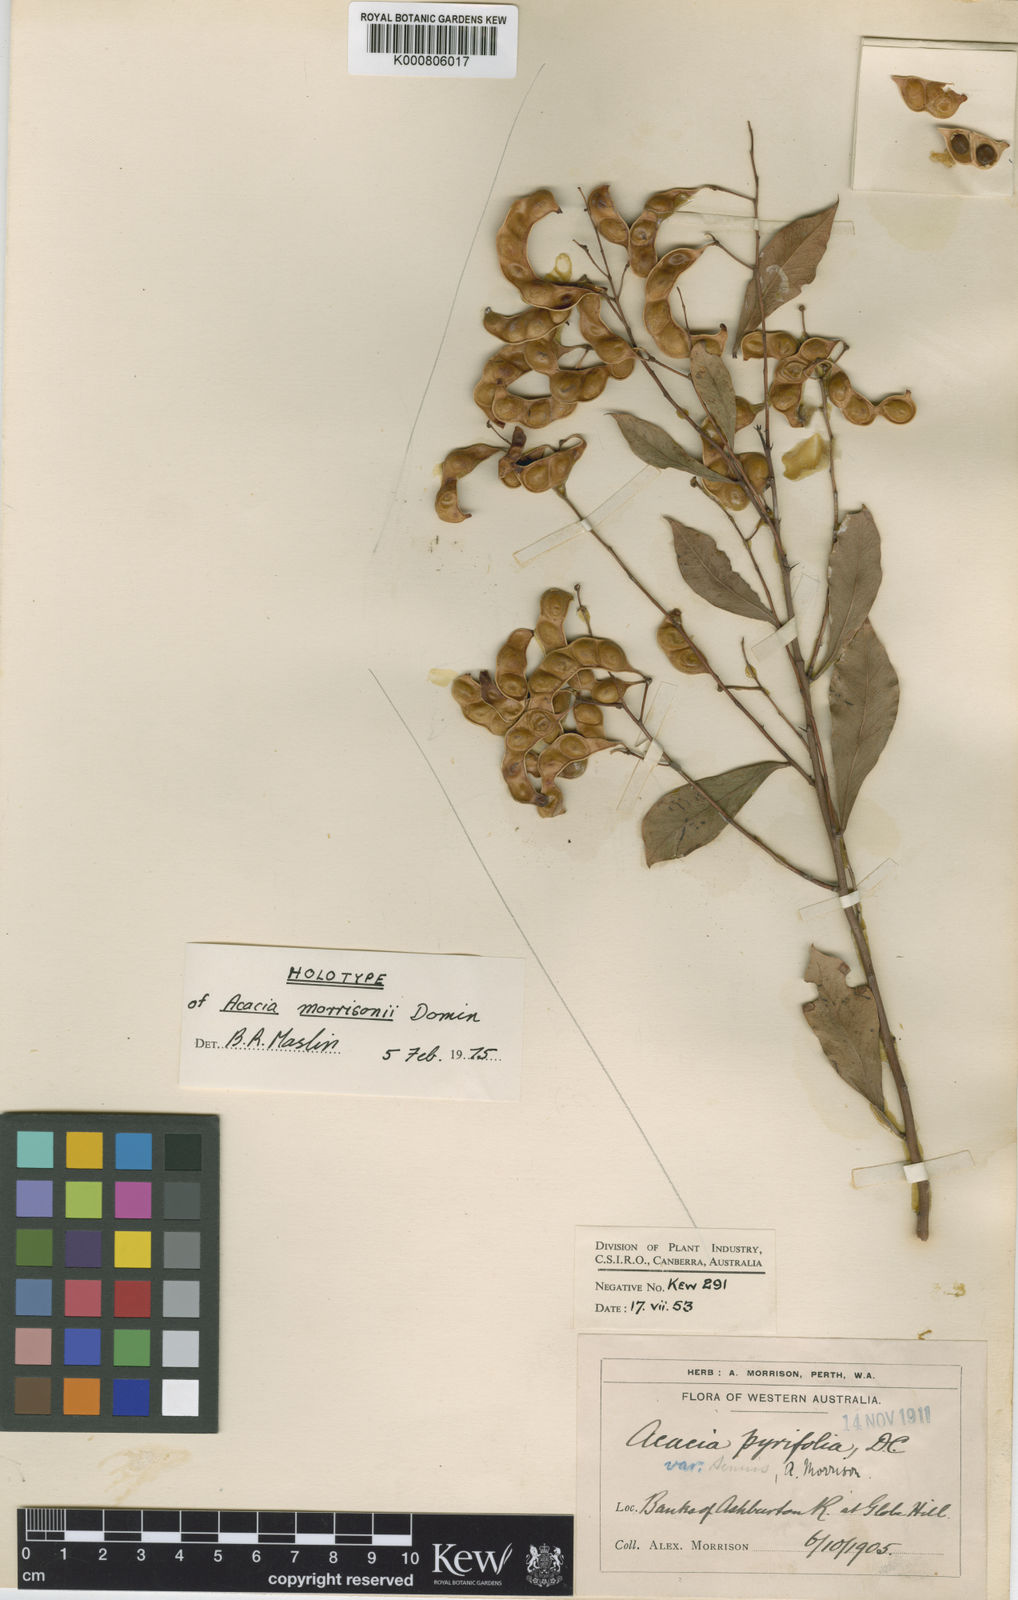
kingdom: Plantae
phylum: Tracheophyta
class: Magnoliopsida
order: Fabales
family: Fabaceae
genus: Acacia
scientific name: Acacia pyrifolia
